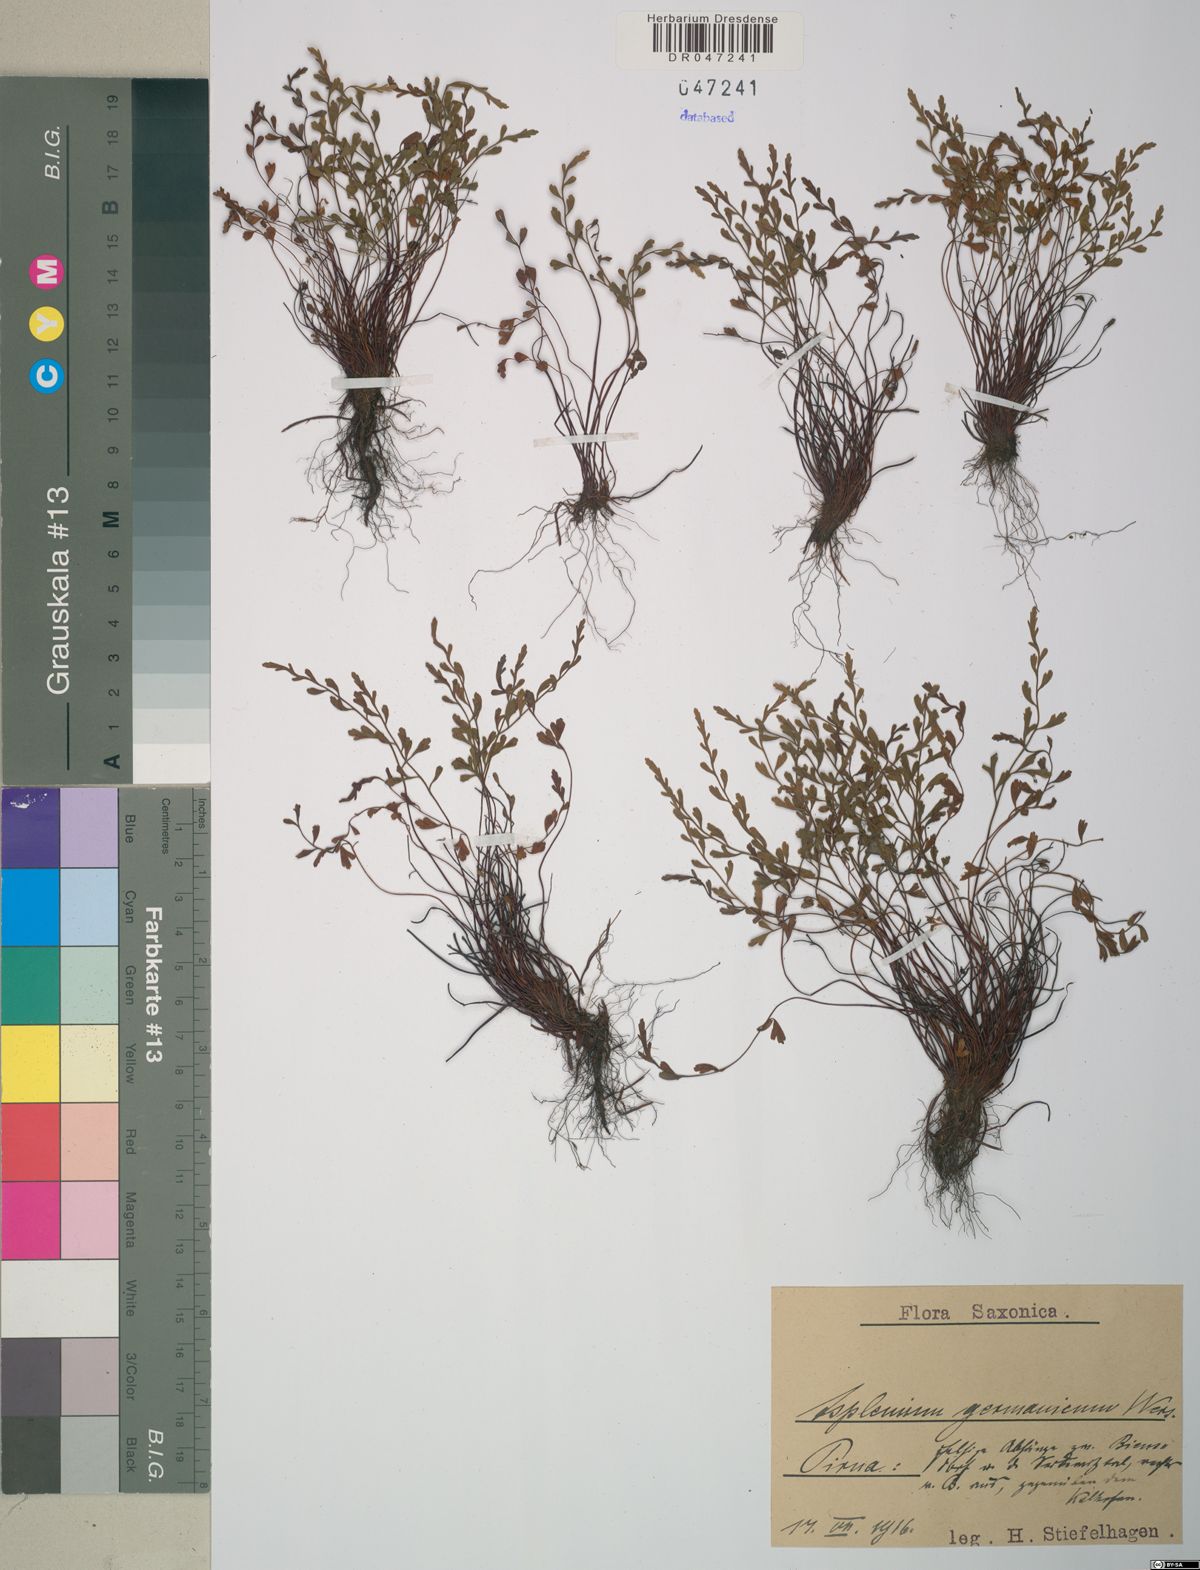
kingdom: Plantae
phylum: Tracheophyta
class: Polypodiopsida
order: Polypodiales
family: Aspleniaceae
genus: Asplenium
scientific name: Asplenium
